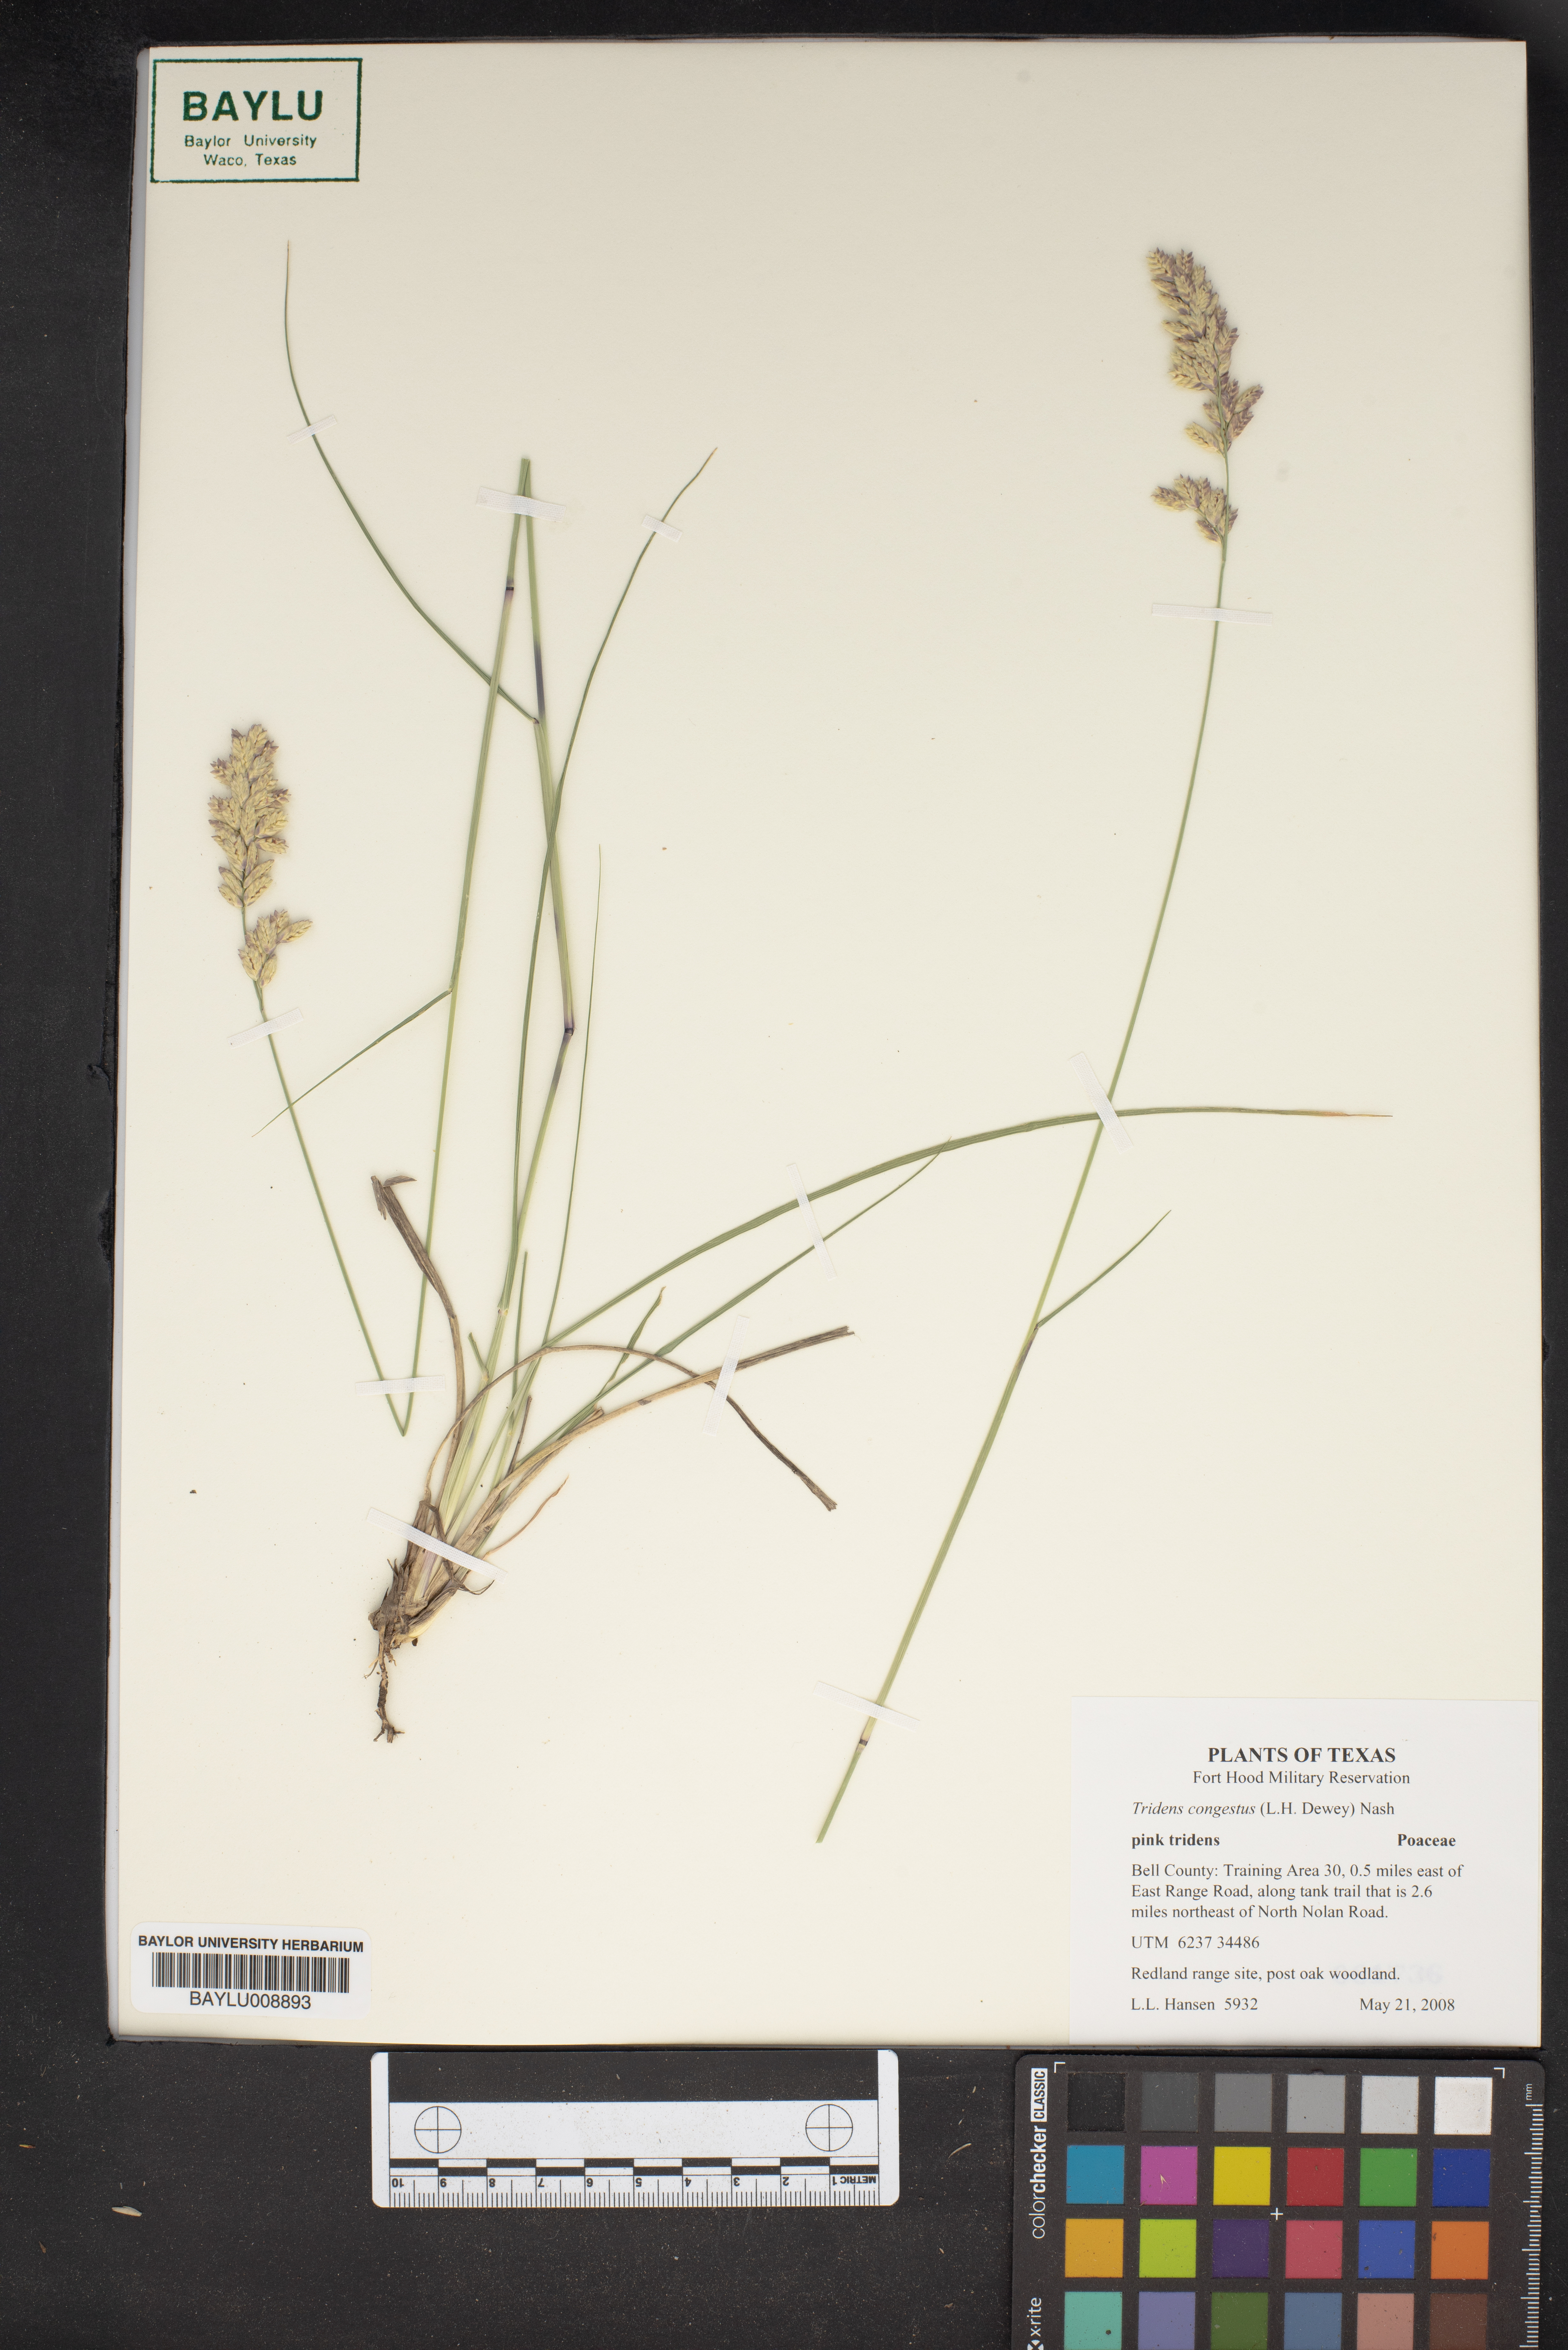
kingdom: Plantae
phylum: Tracheophyta
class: Liliopsida
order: Poales
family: Poaceae
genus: Tridens
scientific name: Tridens congestus
